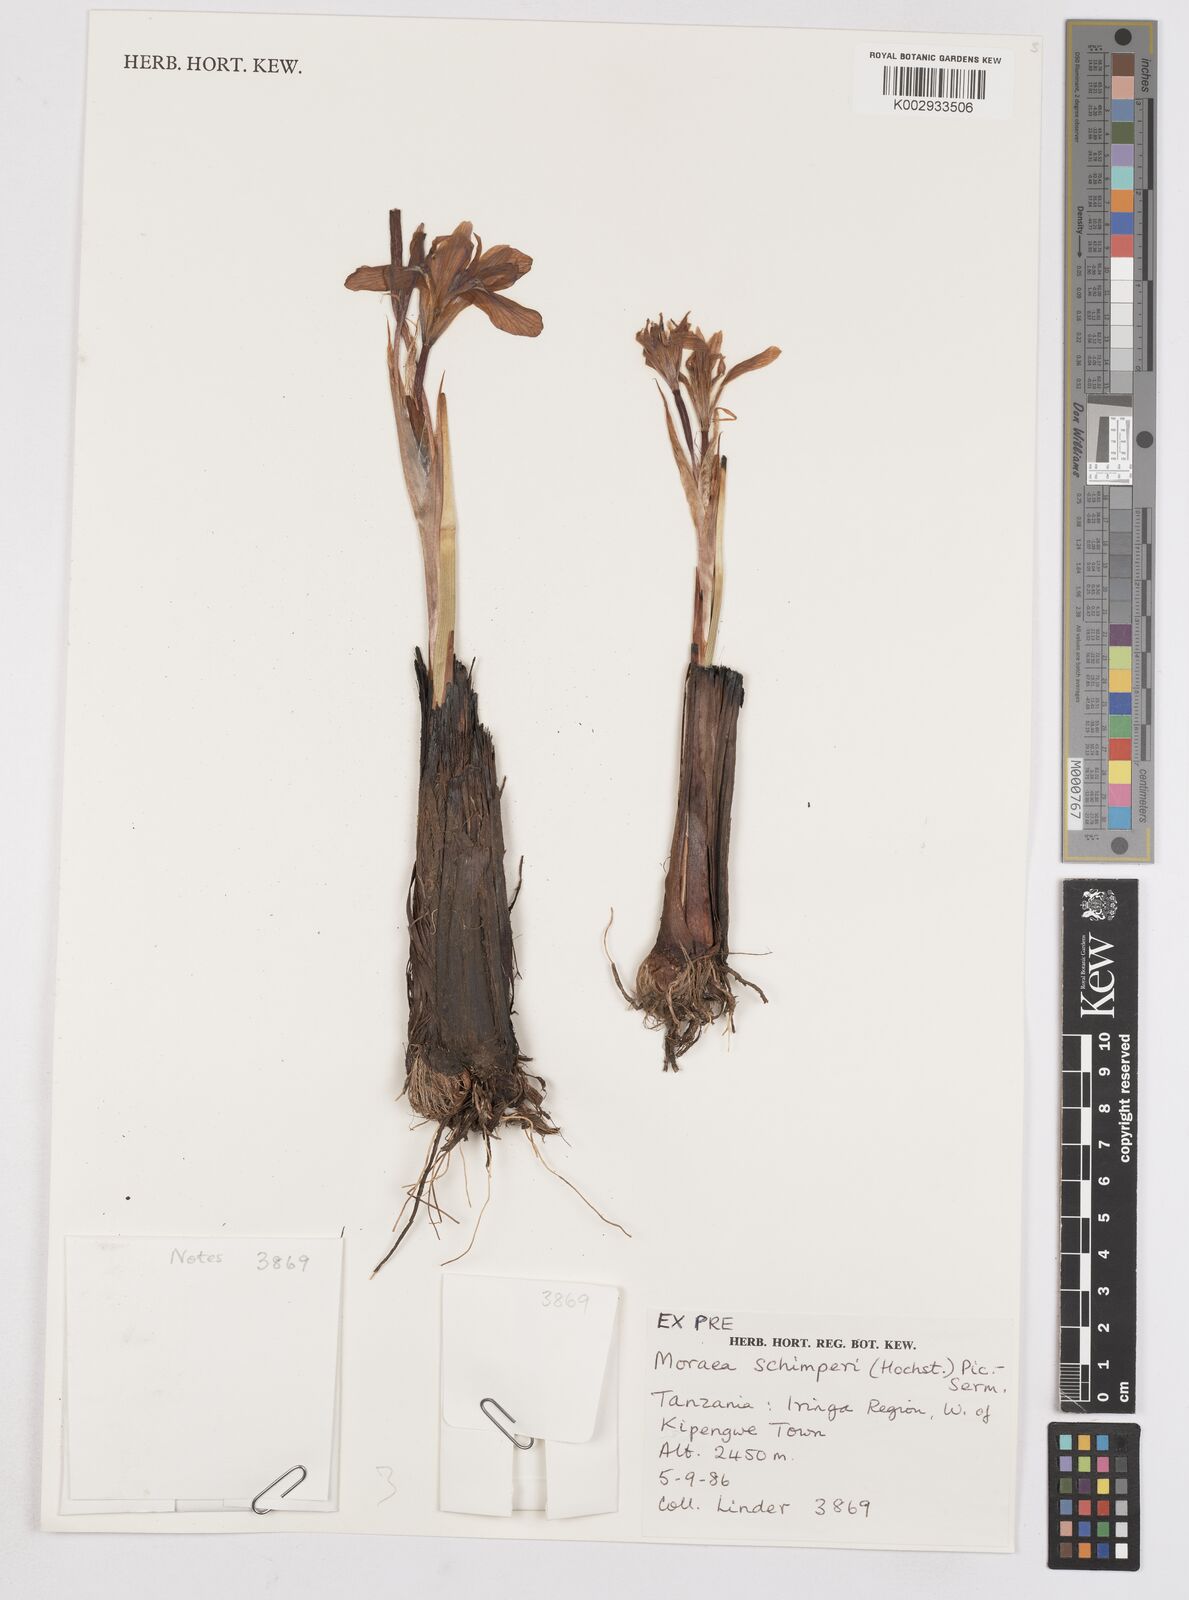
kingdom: Plantae
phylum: Tracheophyta
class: Liliopsida
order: Asparagales
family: Iridaceae
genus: Moraea
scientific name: Moraea schimperi
